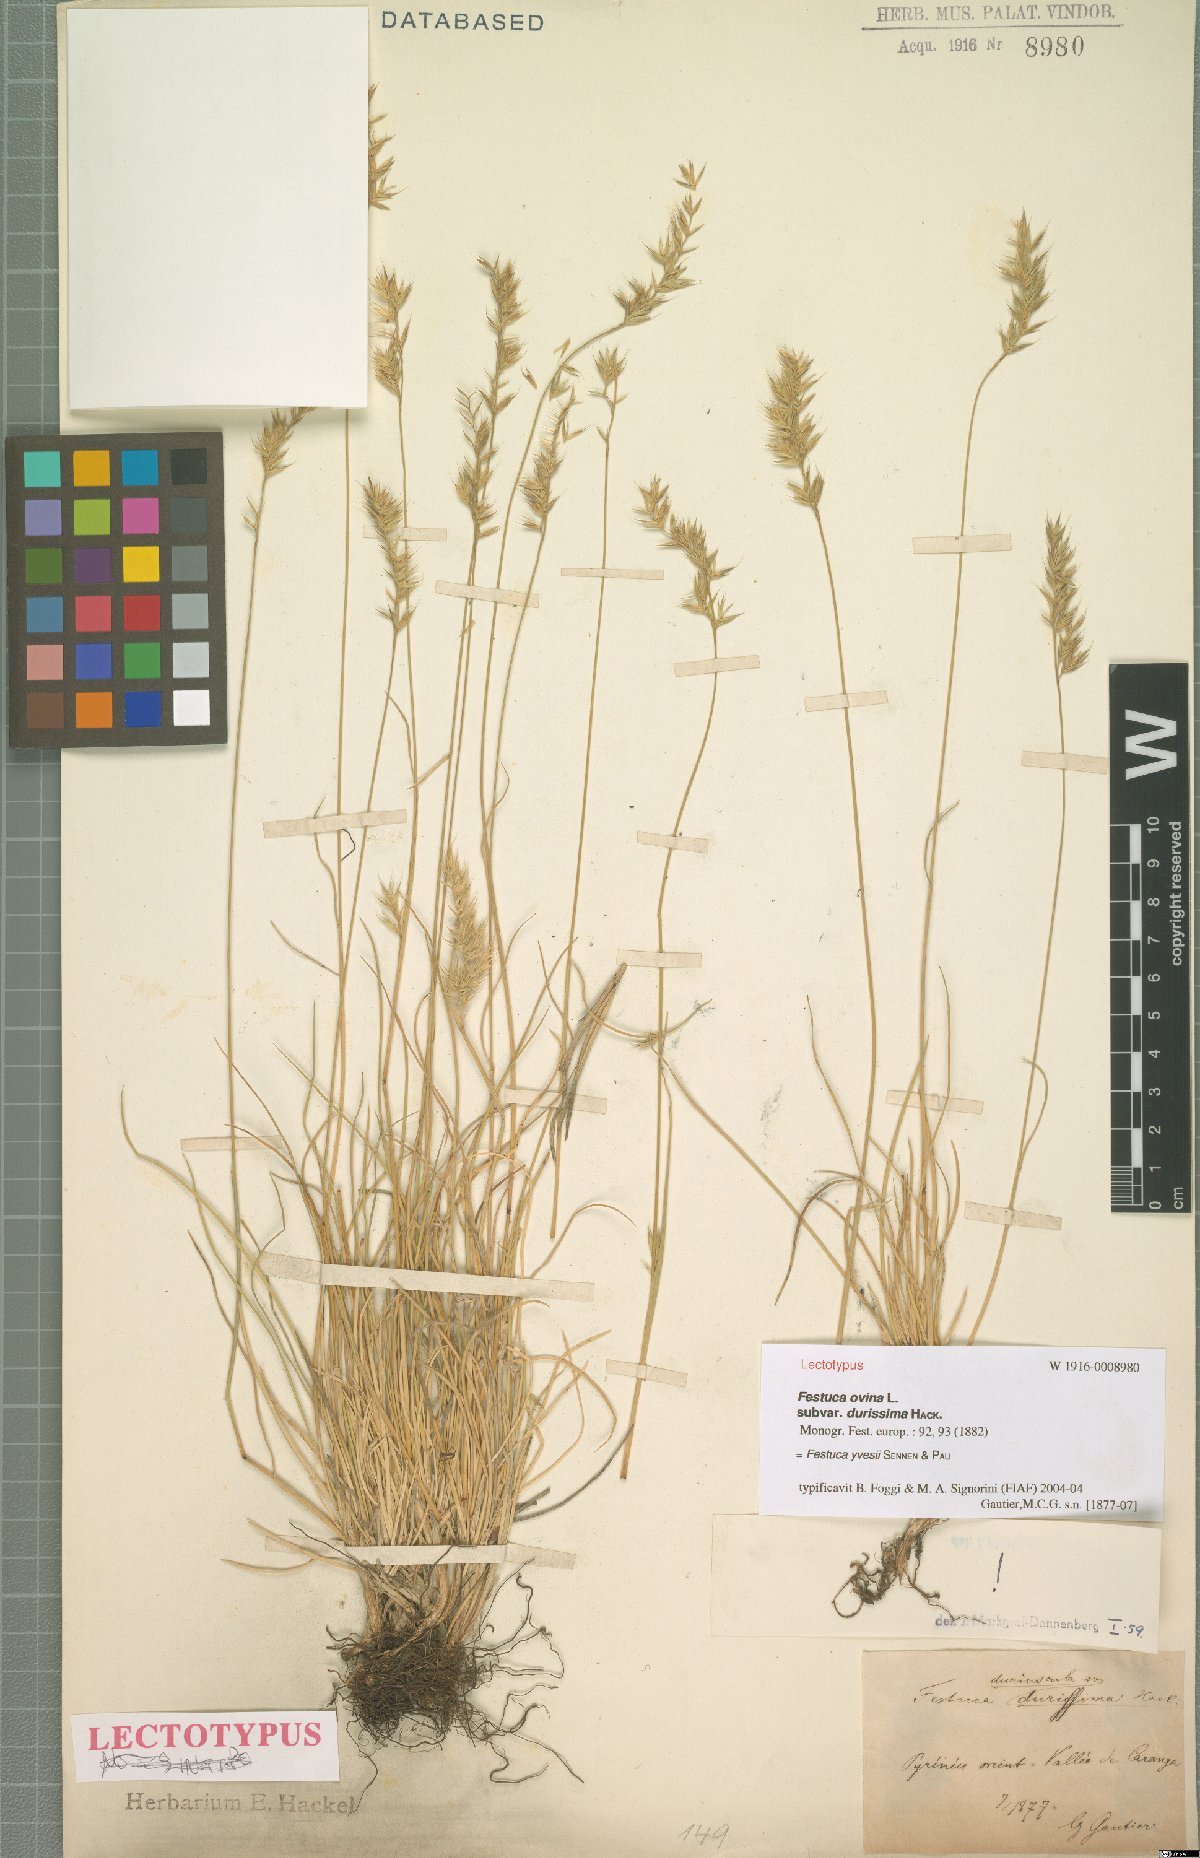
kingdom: Plantae
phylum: Tracheophyta
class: Liliopsida
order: Poales
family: Poaceae
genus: Festuca
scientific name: Festuca durissima
